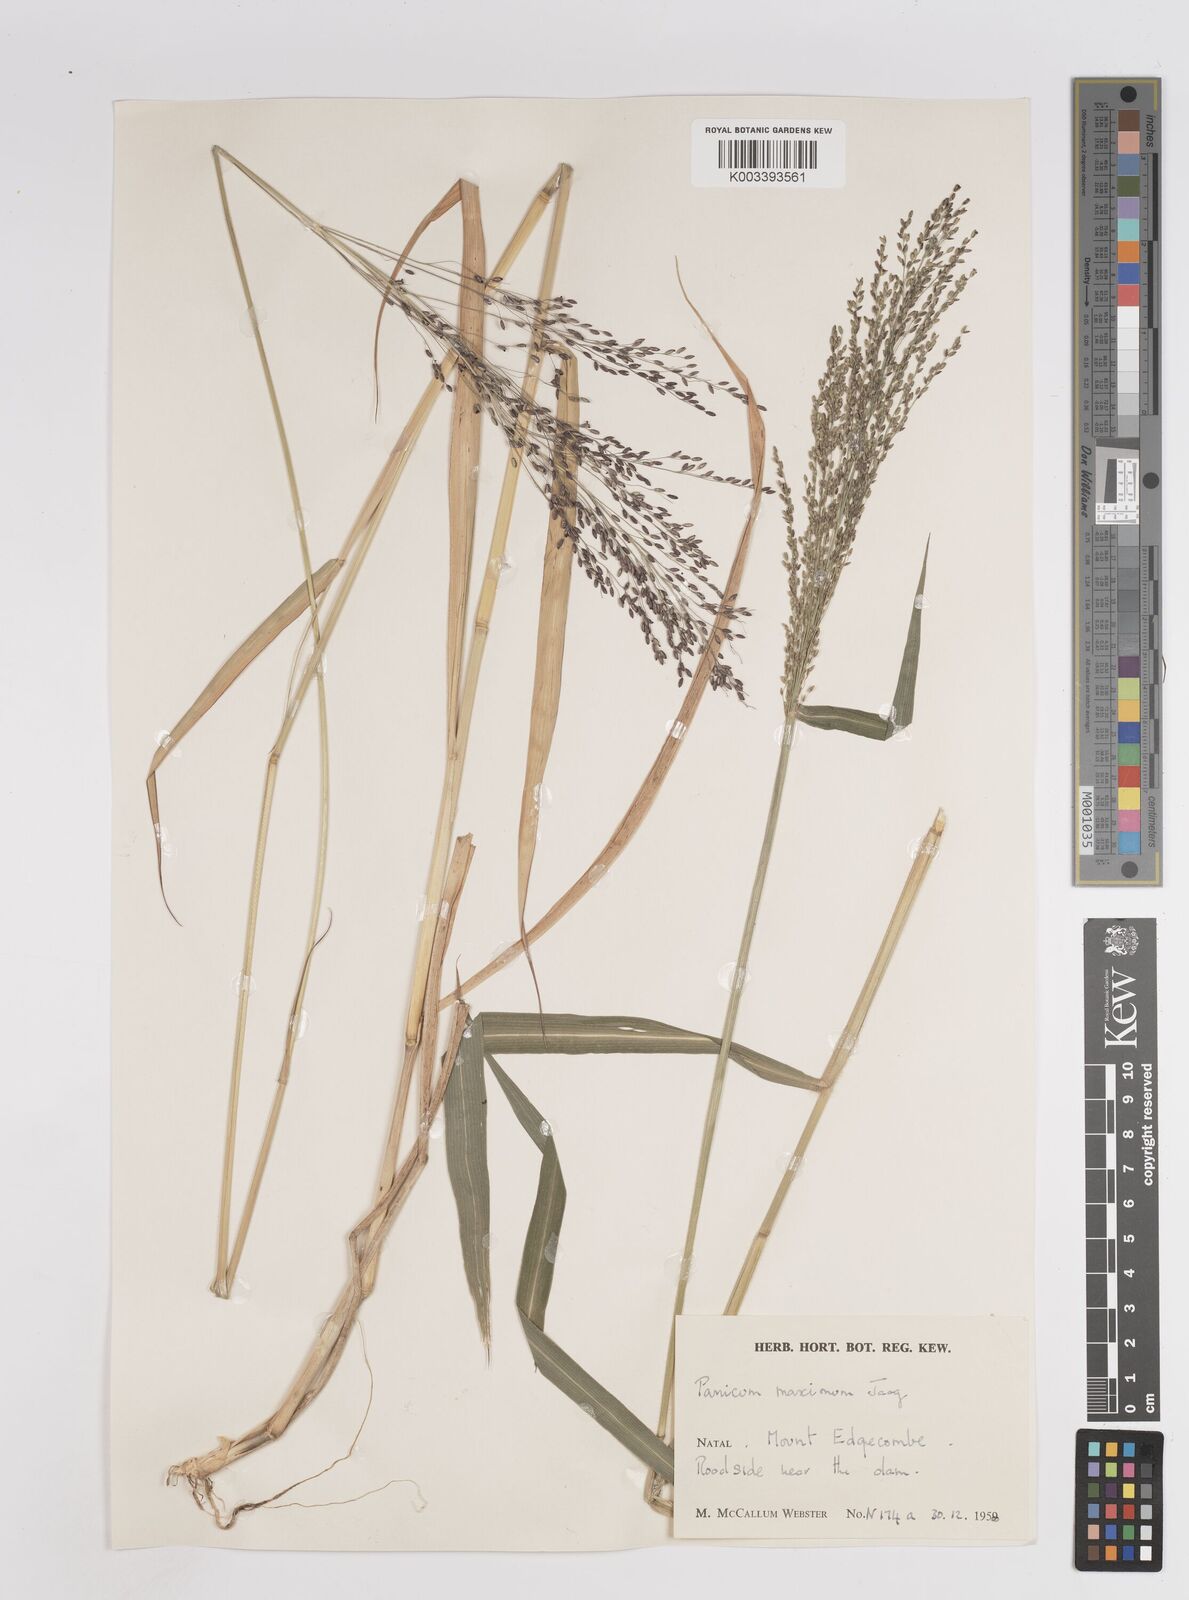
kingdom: Plantae
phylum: Tracheophyta
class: Liliopsida
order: Poales
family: Poaceae
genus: Megathyrsus
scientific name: Megathyrsus maximus
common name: Guineagrass
